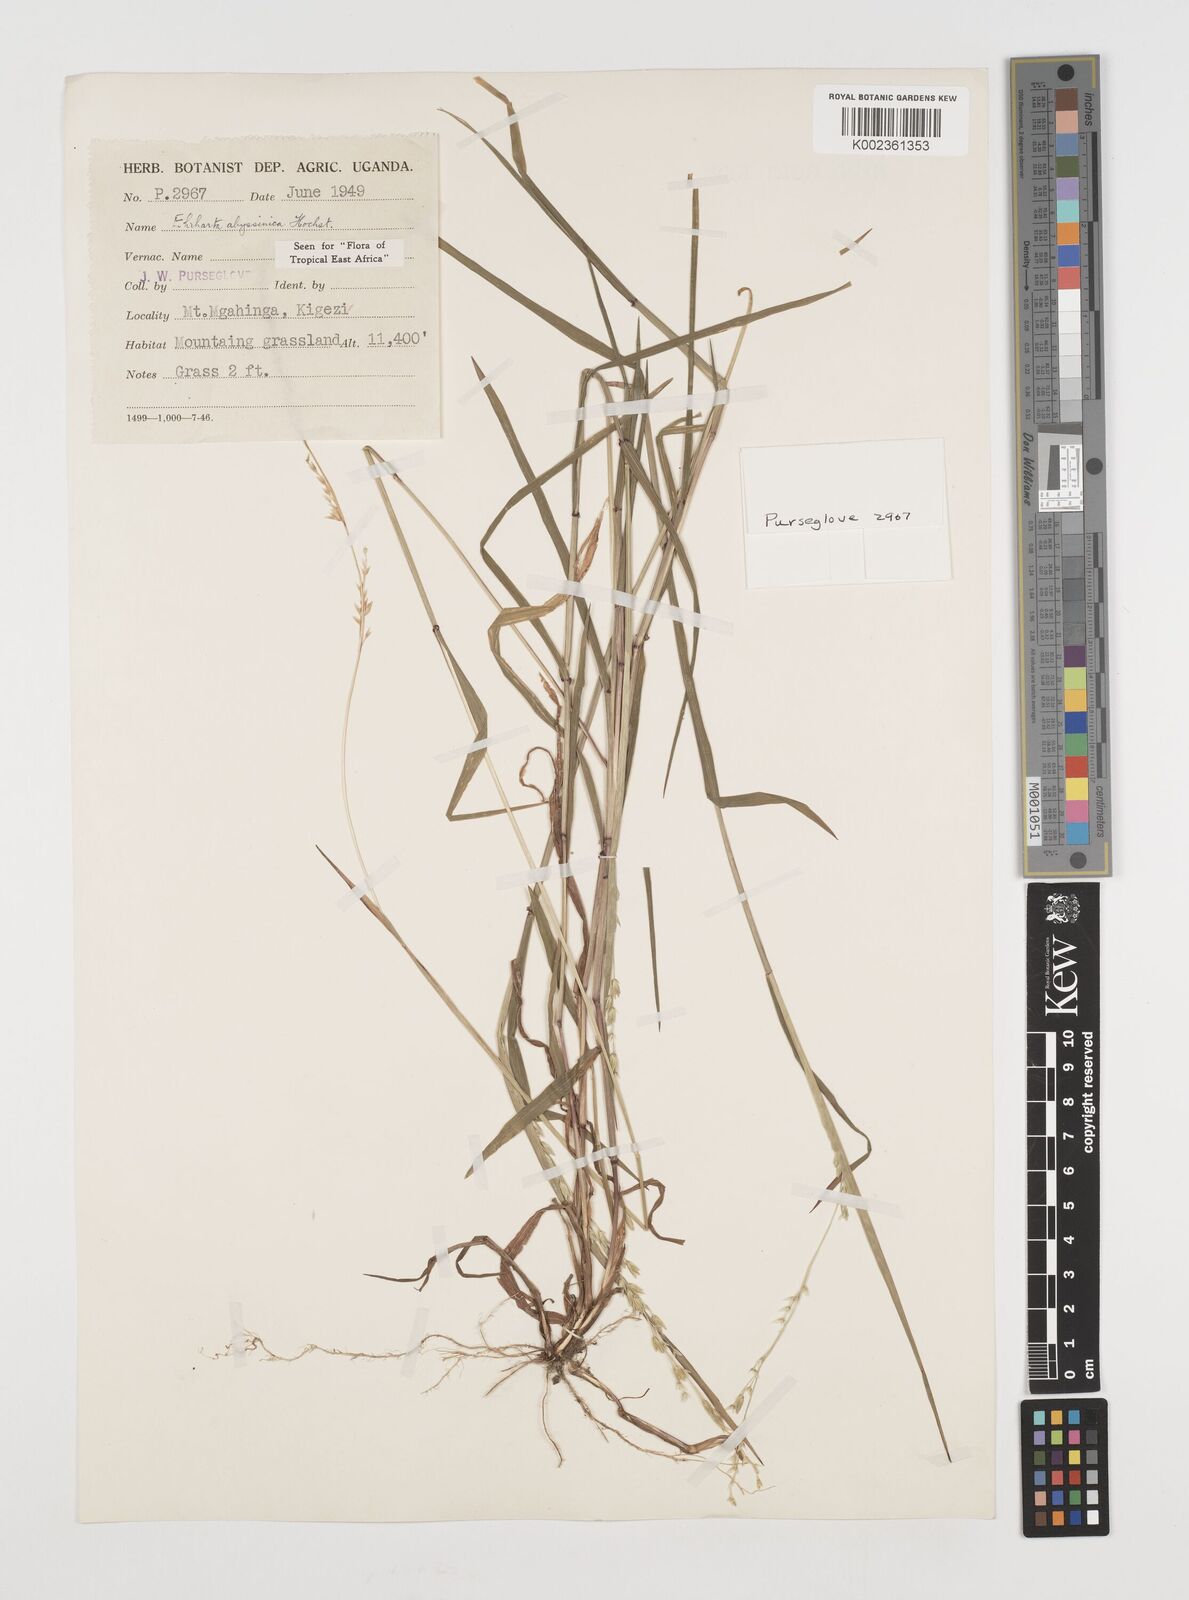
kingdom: Plantae
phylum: Tracheophyta
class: Liliopsida
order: Poales
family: Poaceae
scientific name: Poaceae
